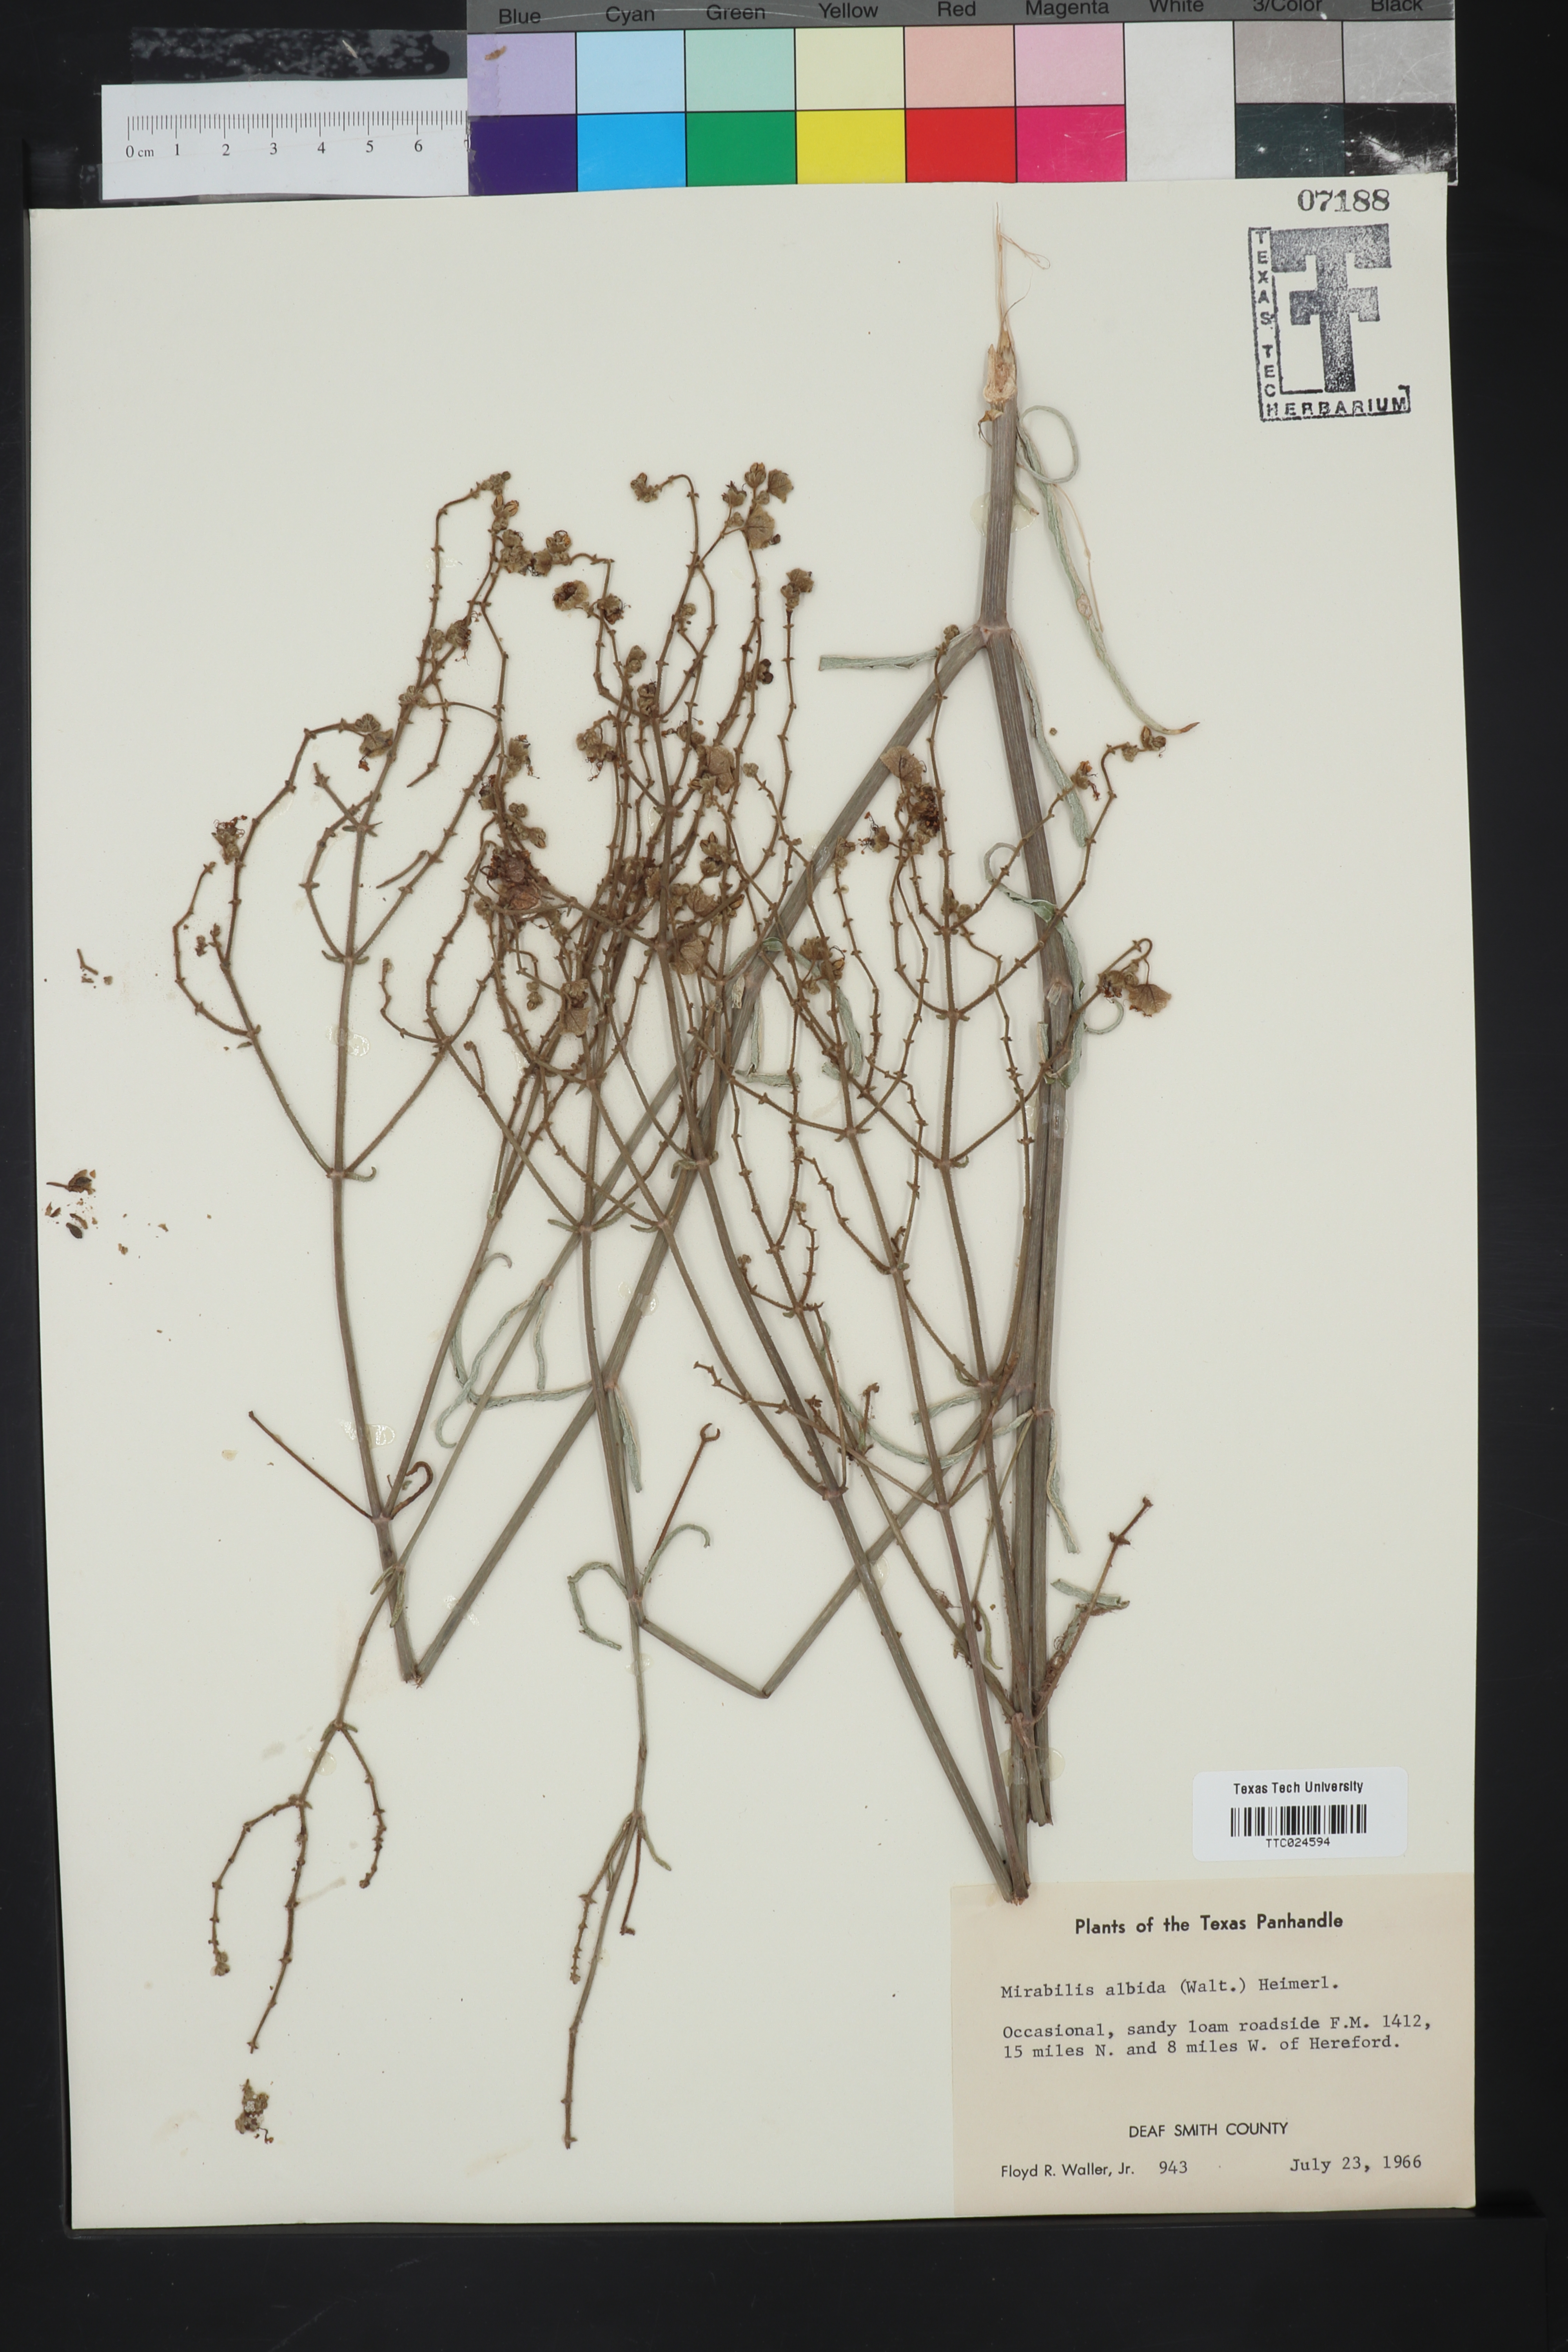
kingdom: Plantae
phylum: Tracheophyta
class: Magnoliopsida
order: Caryophyllales
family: Nyctaginaceae
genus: Mirabilis
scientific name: Mirabilis albida
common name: Hairy four-o'clock
